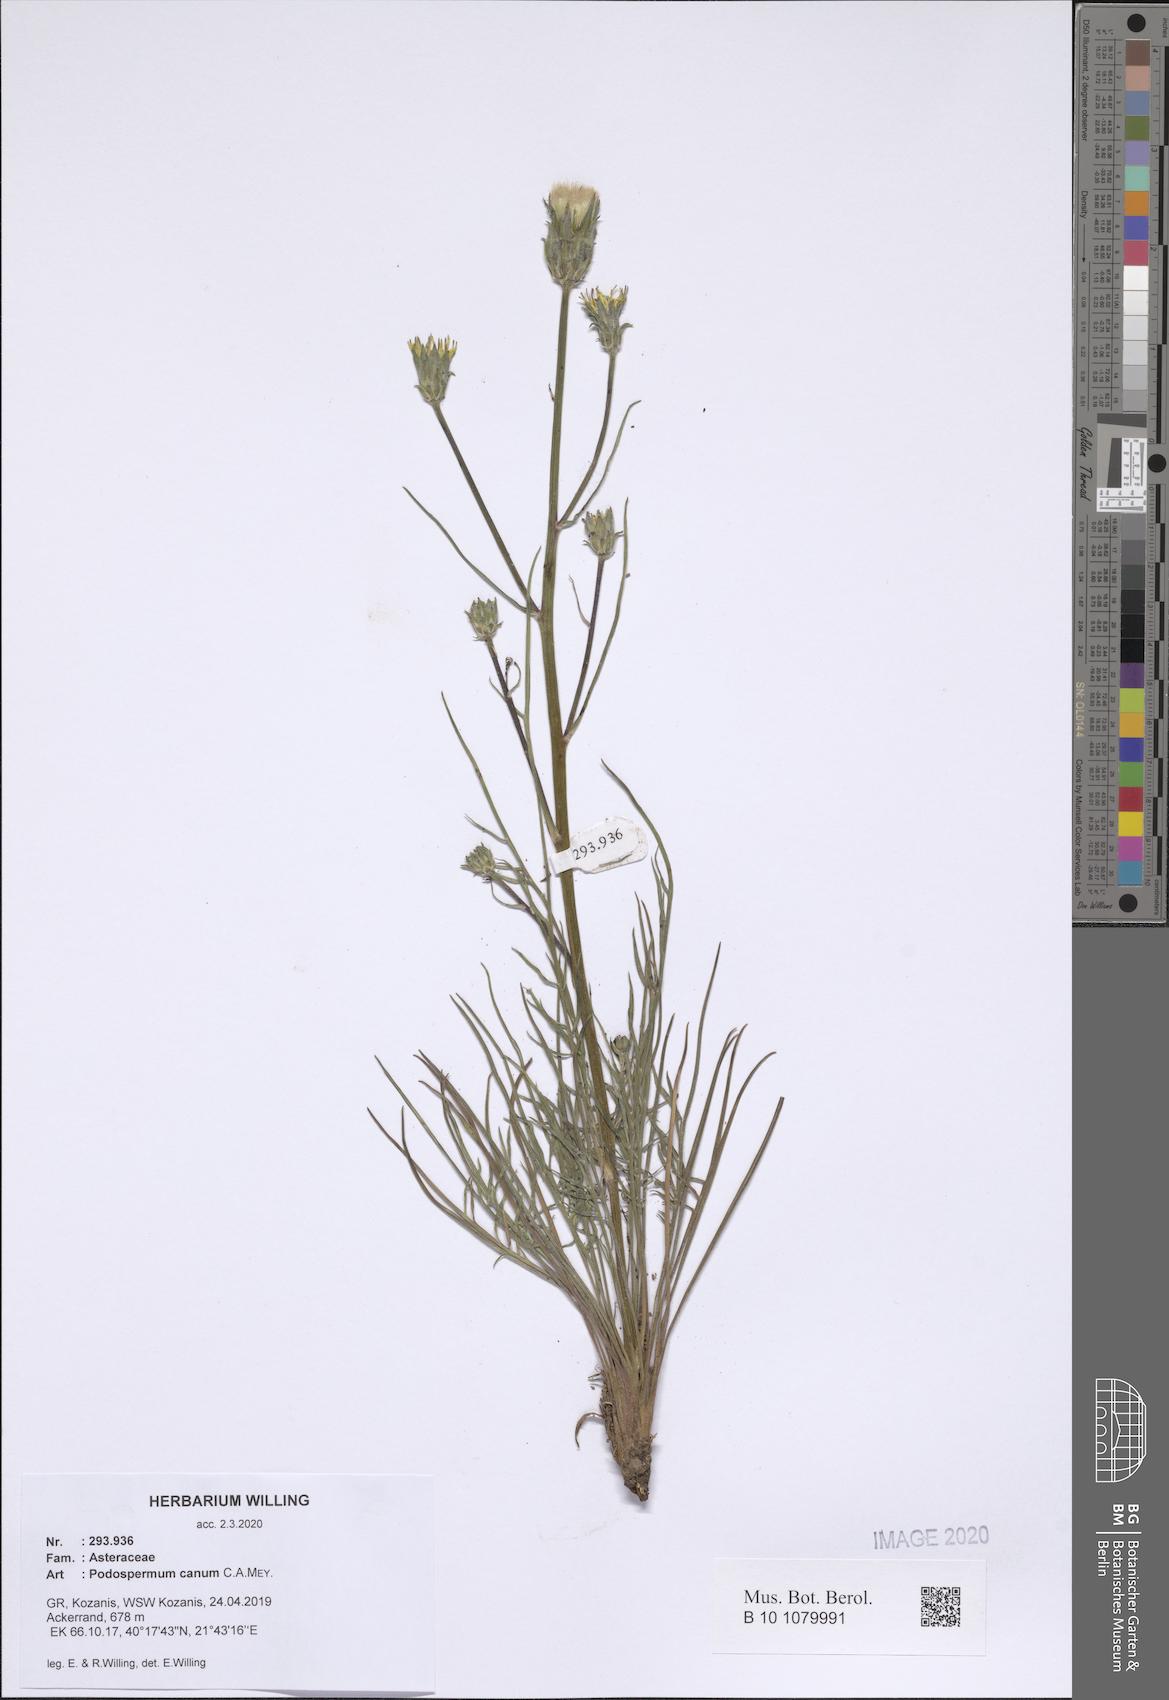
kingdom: Plantae
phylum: Tracheophyta
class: Magnoliopsida
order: Asterales
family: Asteraceae
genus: Scorzonera
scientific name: Scorzonera cana
